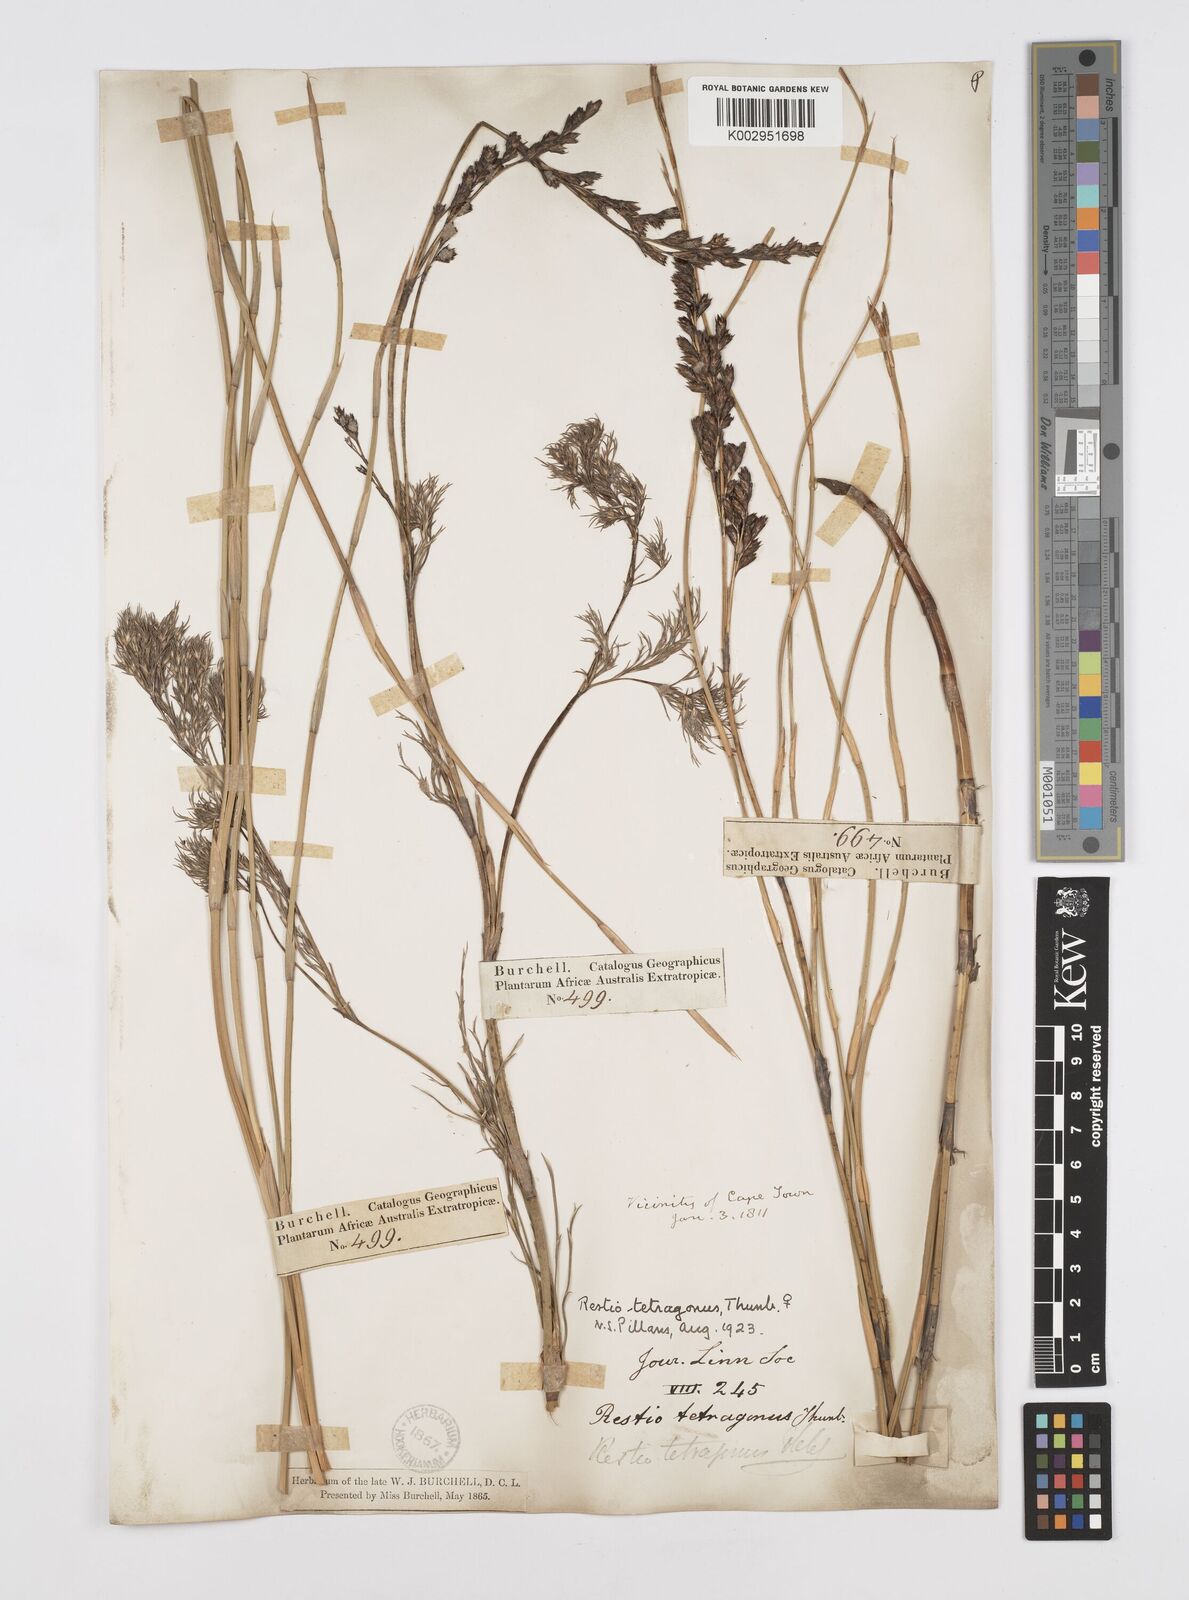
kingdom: Plantae
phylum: Tracheophyta
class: Liliopsida
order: Poales
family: Restionaceae
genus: Restio
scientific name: Restio tetragonus
